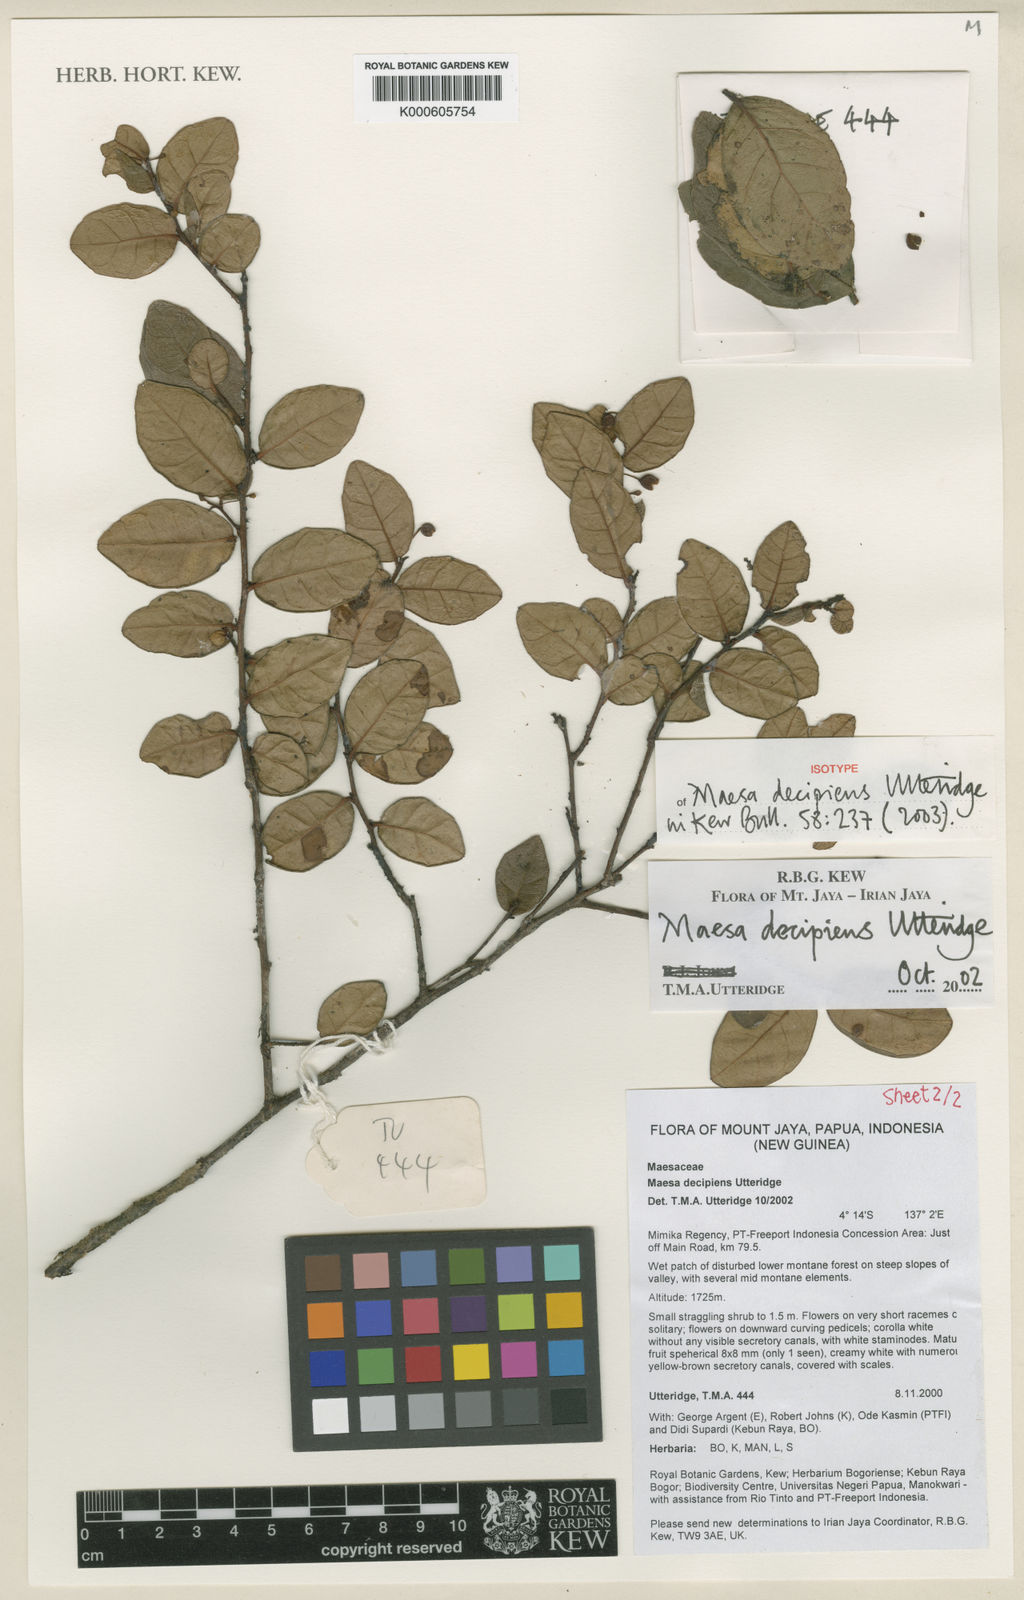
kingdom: Plantae
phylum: Tracheophyta
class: Magnoliopsida
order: Ericales
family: Primulaceae
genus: Maesa
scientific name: Maesa decipiens
